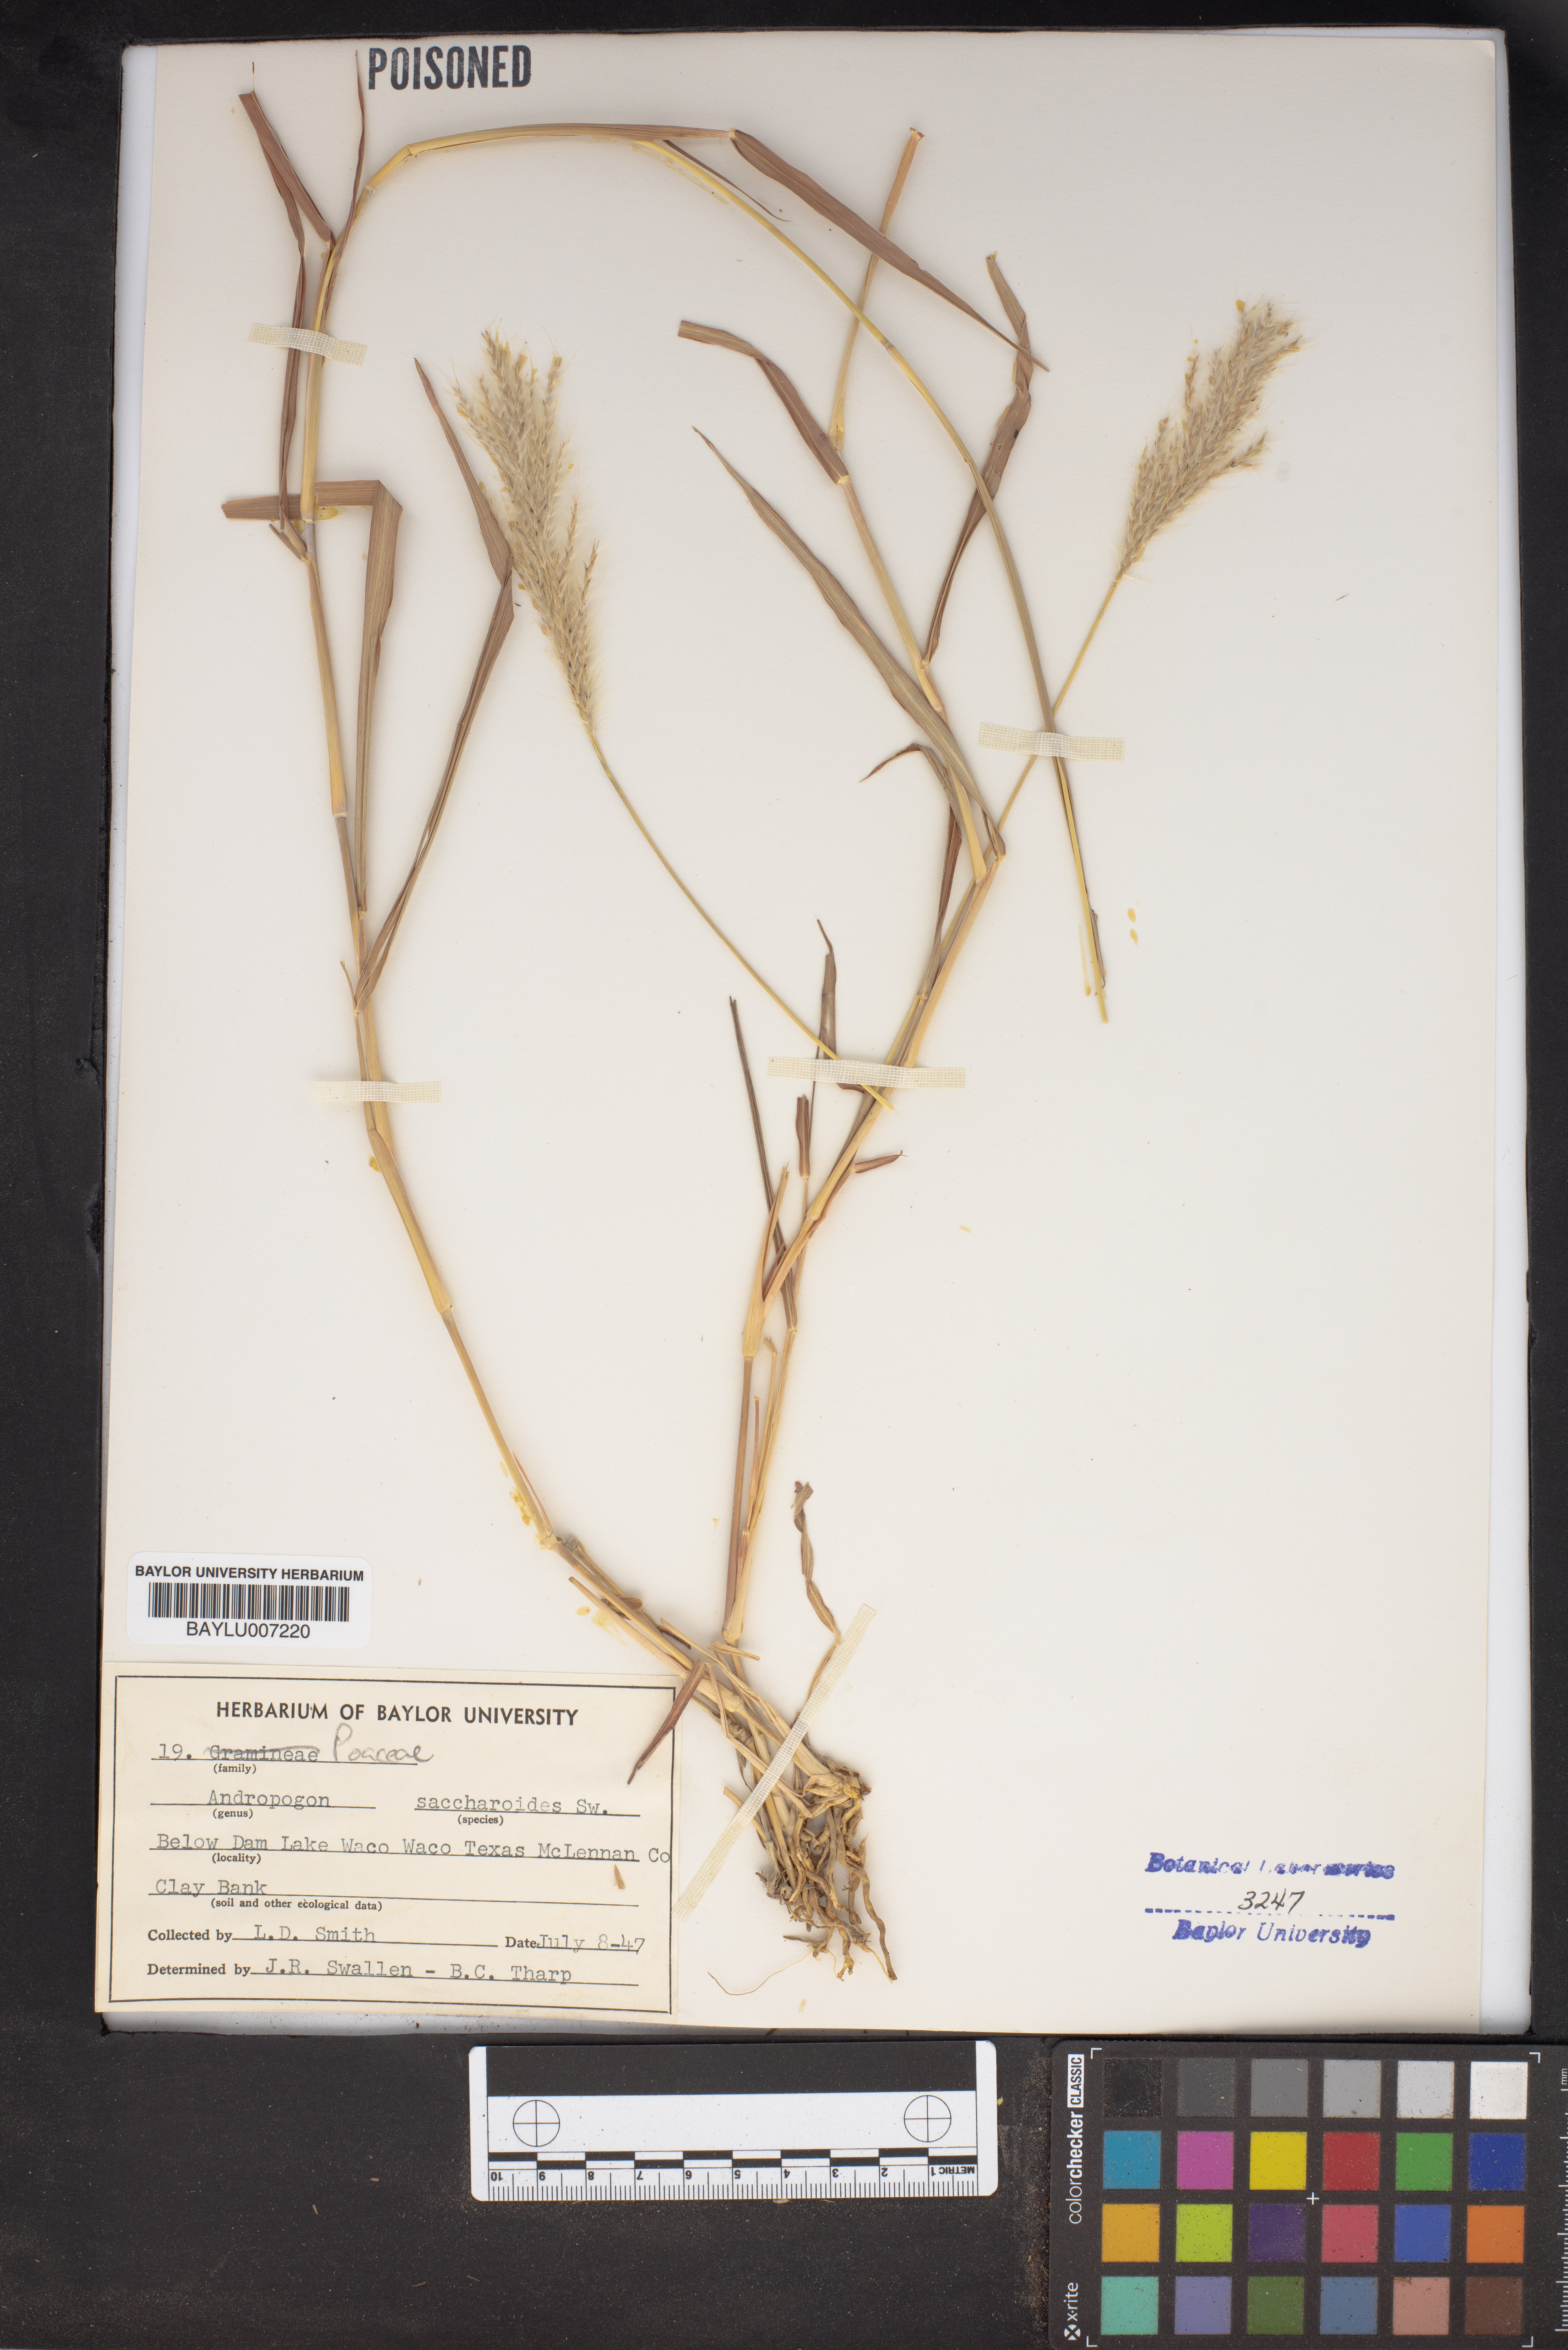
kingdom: Plantae
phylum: Tracheophyta
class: Liliopsida
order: Poales
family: Poaceae
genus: Bothriochloa
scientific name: Bothriochloa saccharoides
